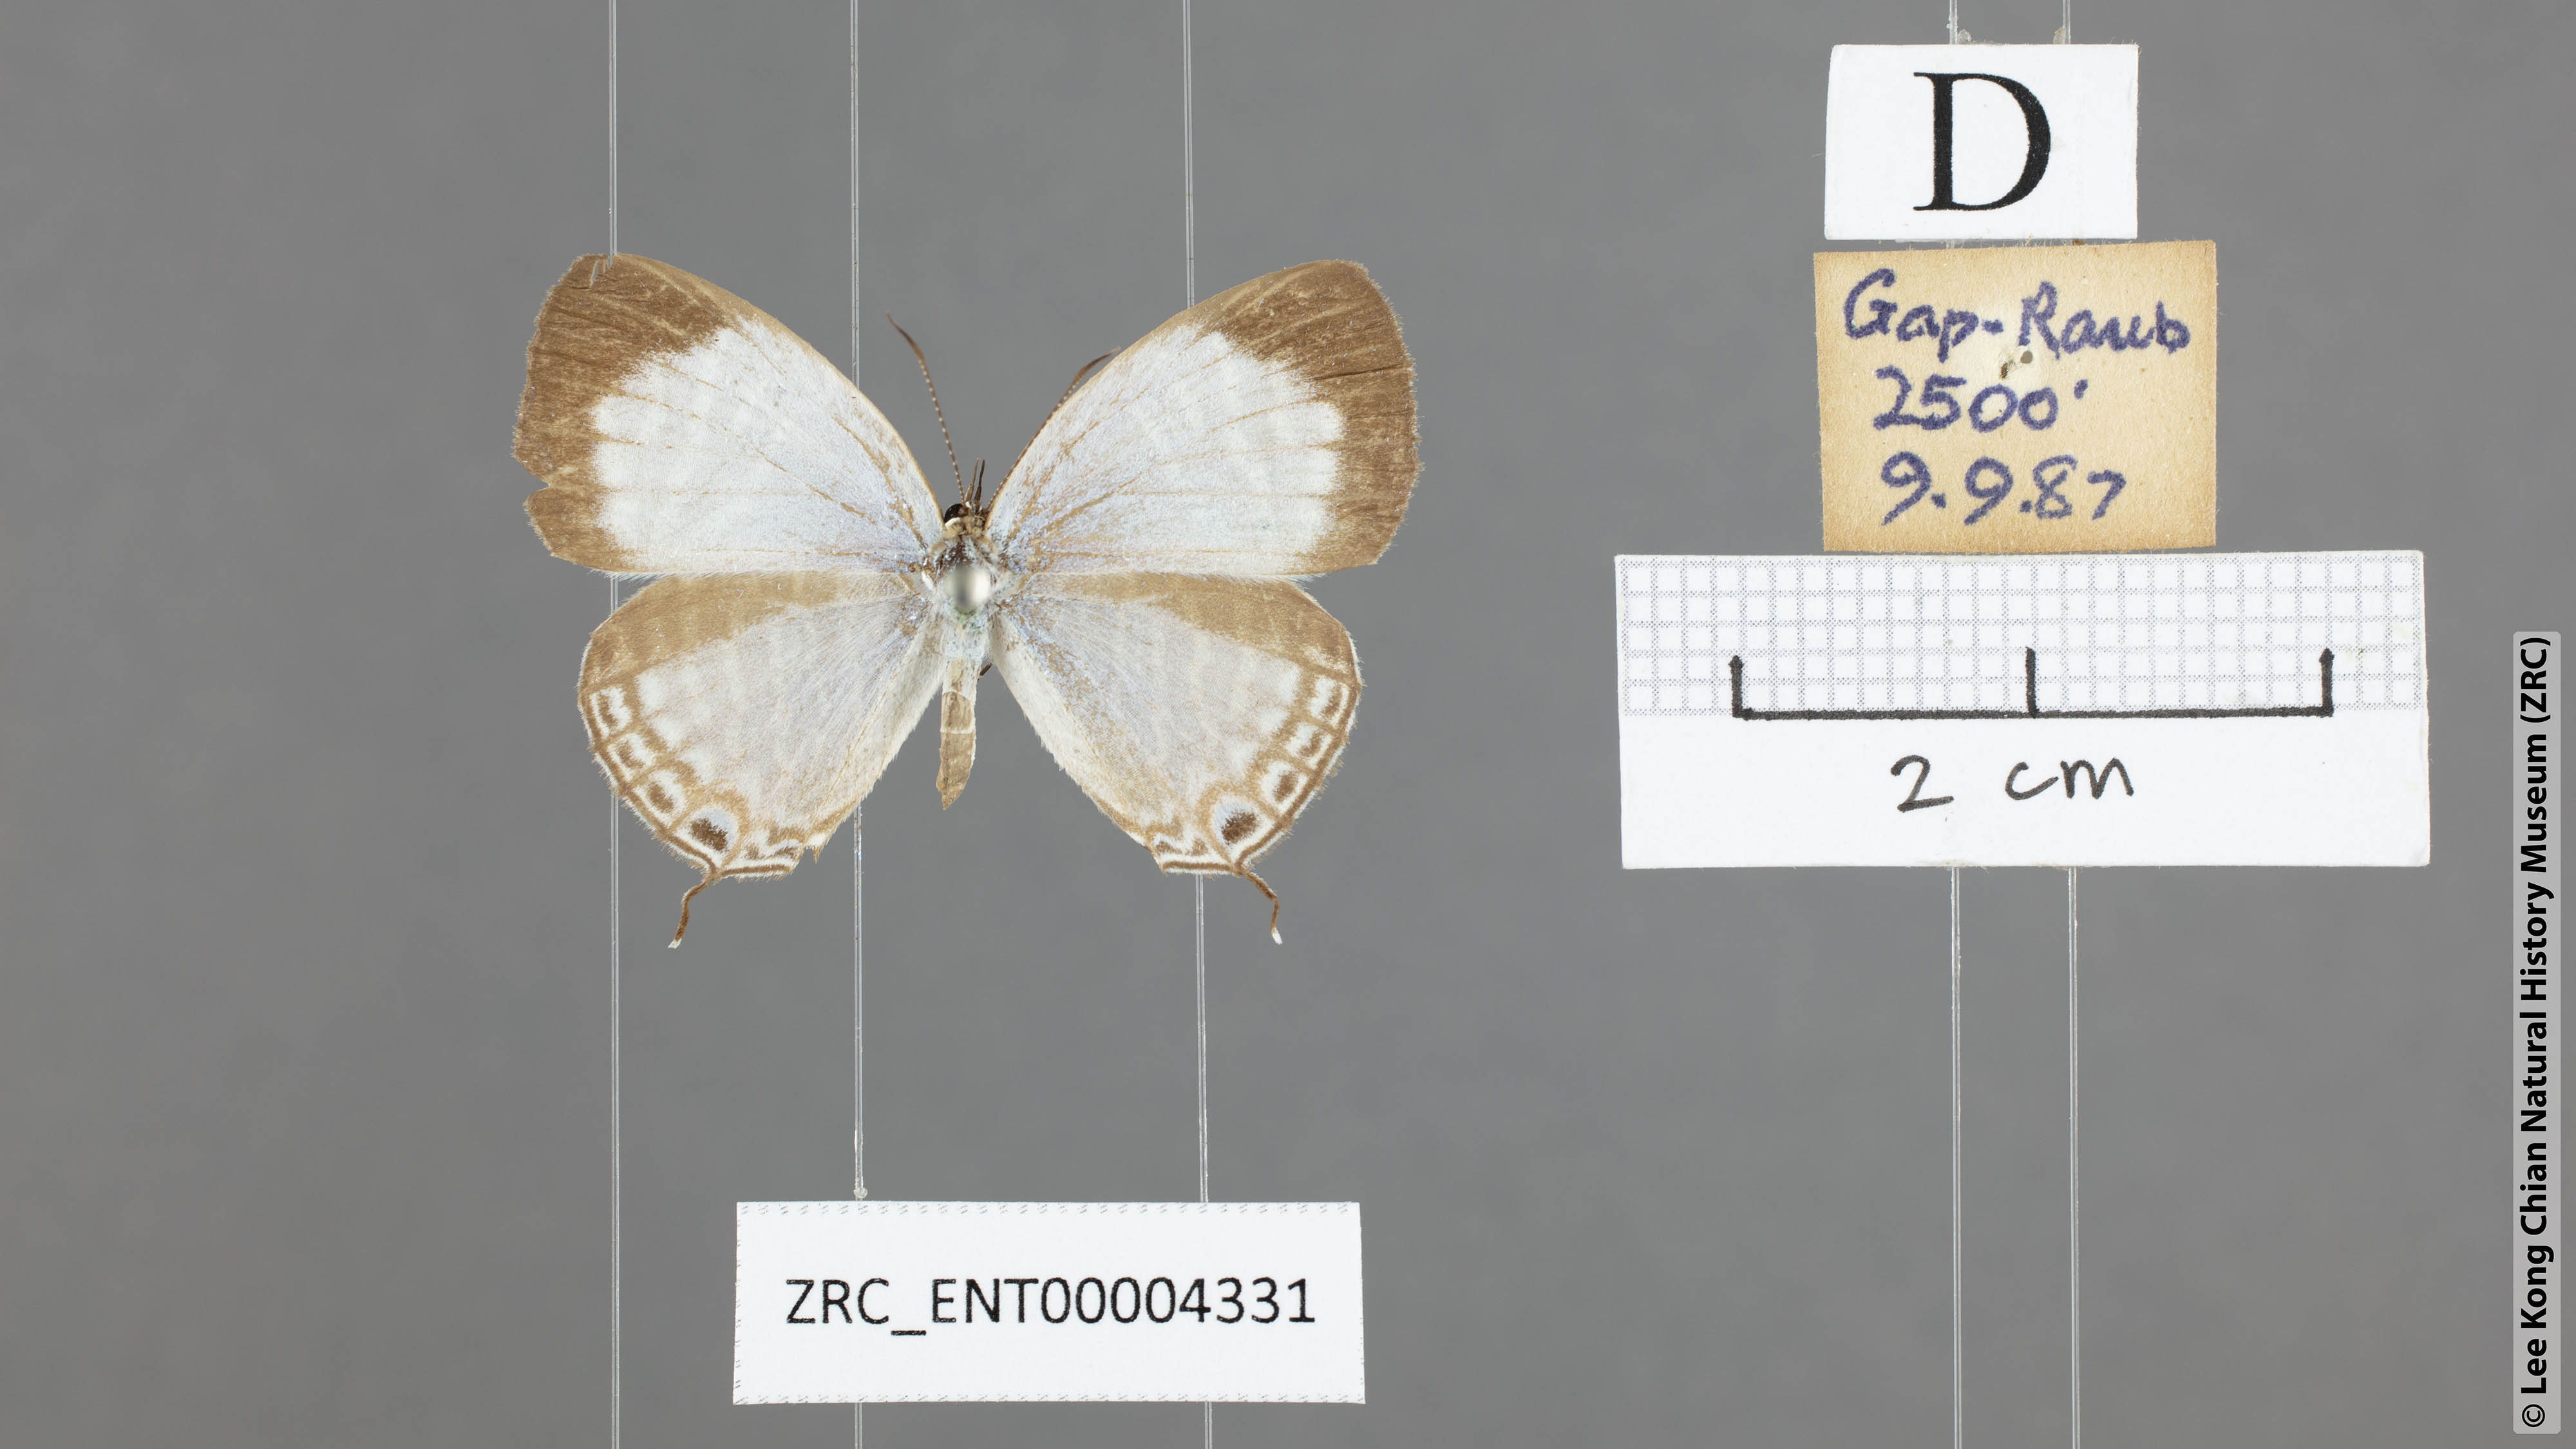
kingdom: Animalia
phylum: Arthropoda
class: Insecta
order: Lepidoptera
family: Lycaenidae
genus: Jamides
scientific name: Jamides celeno
